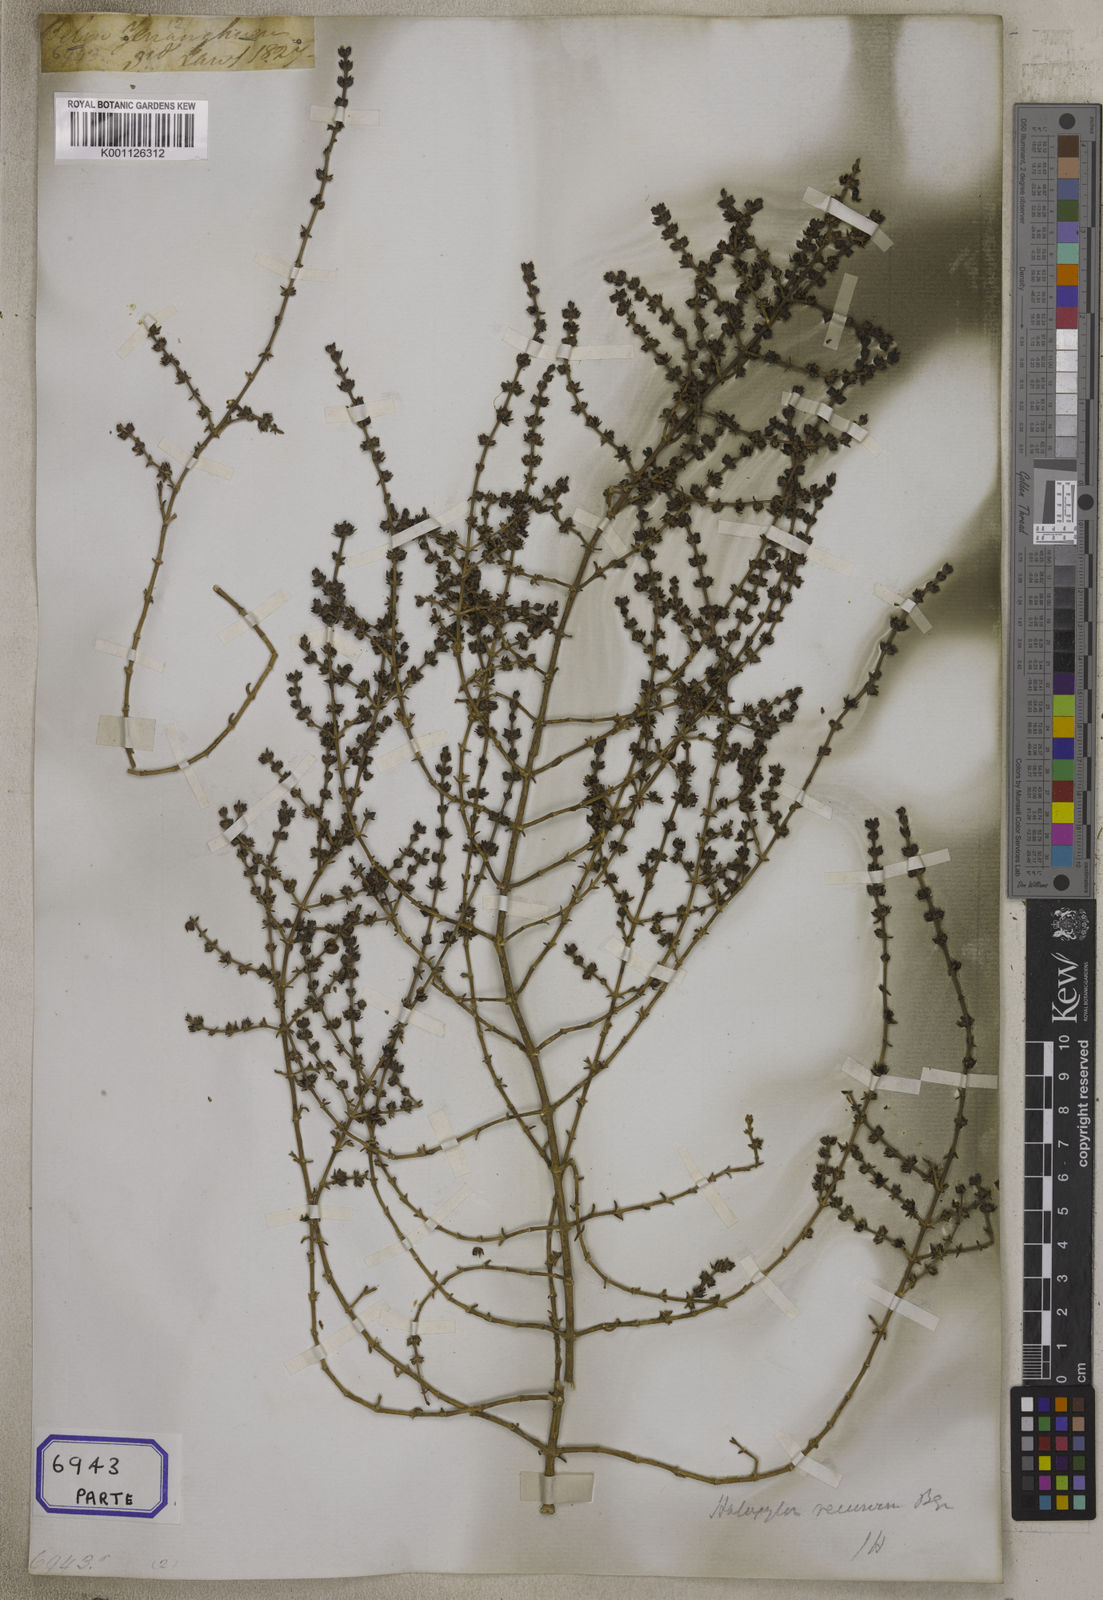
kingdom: Plantae
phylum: Tracheophyta
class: Magnoliopsida
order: Caryophyllales
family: Amaranthaceae
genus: Soda
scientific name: Soda stocksii
